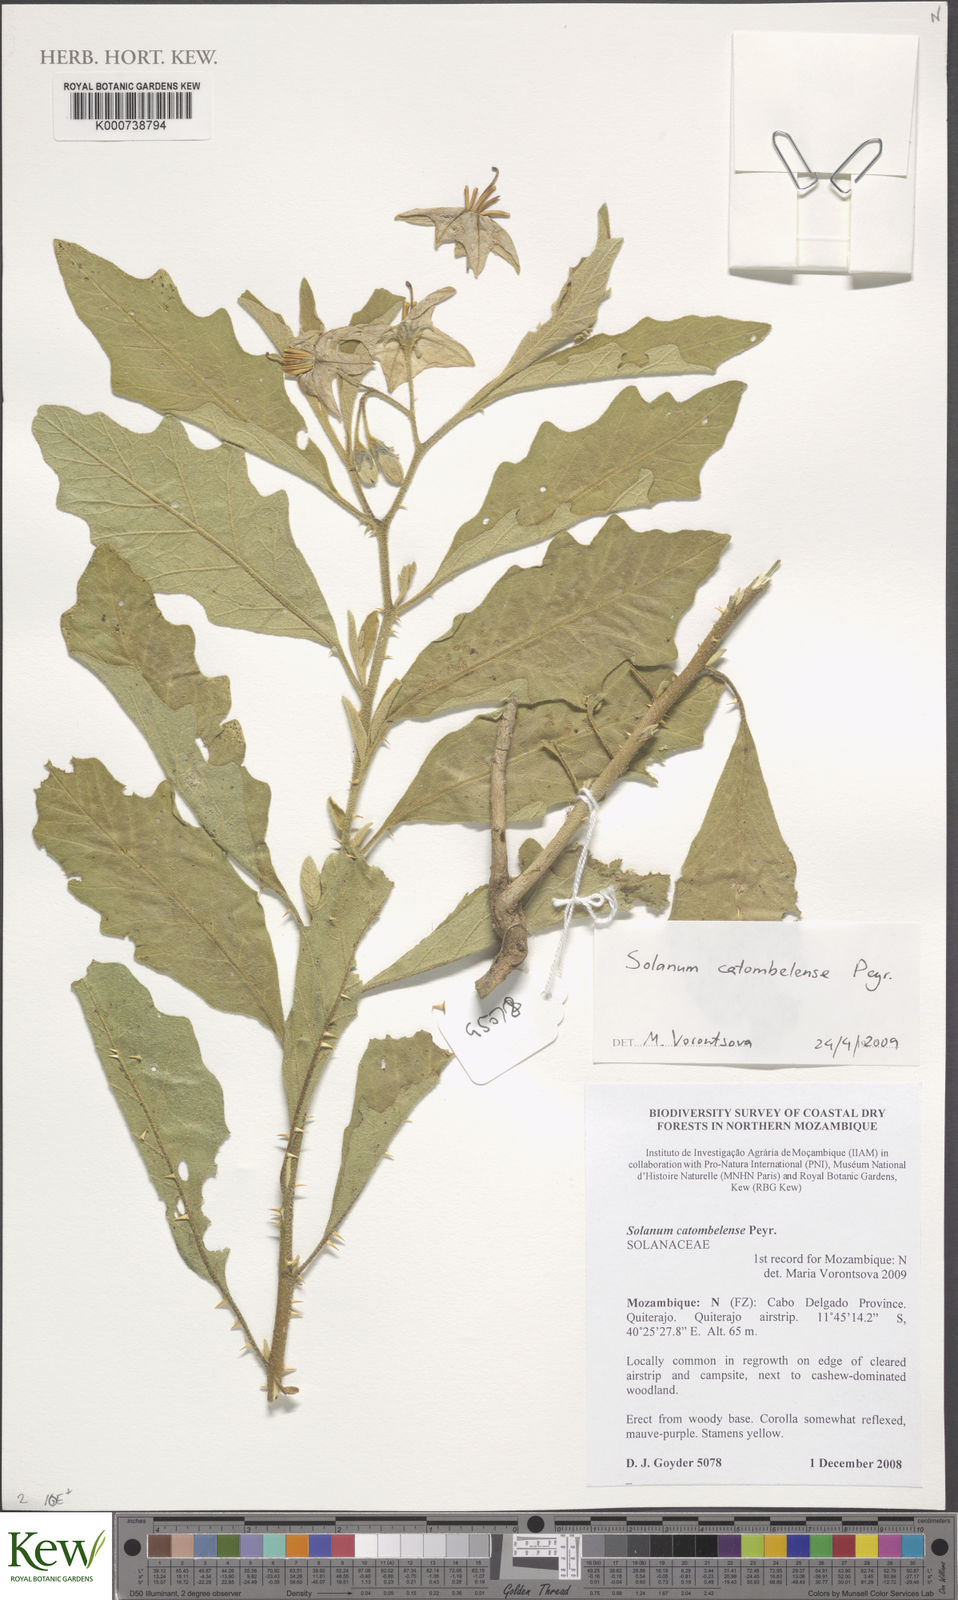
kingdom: Plantae
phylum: Tracheophyta
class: Magnoliopsida
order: Solanales
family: Solanaceae
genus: Solanum
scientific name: Solanum catombelense
